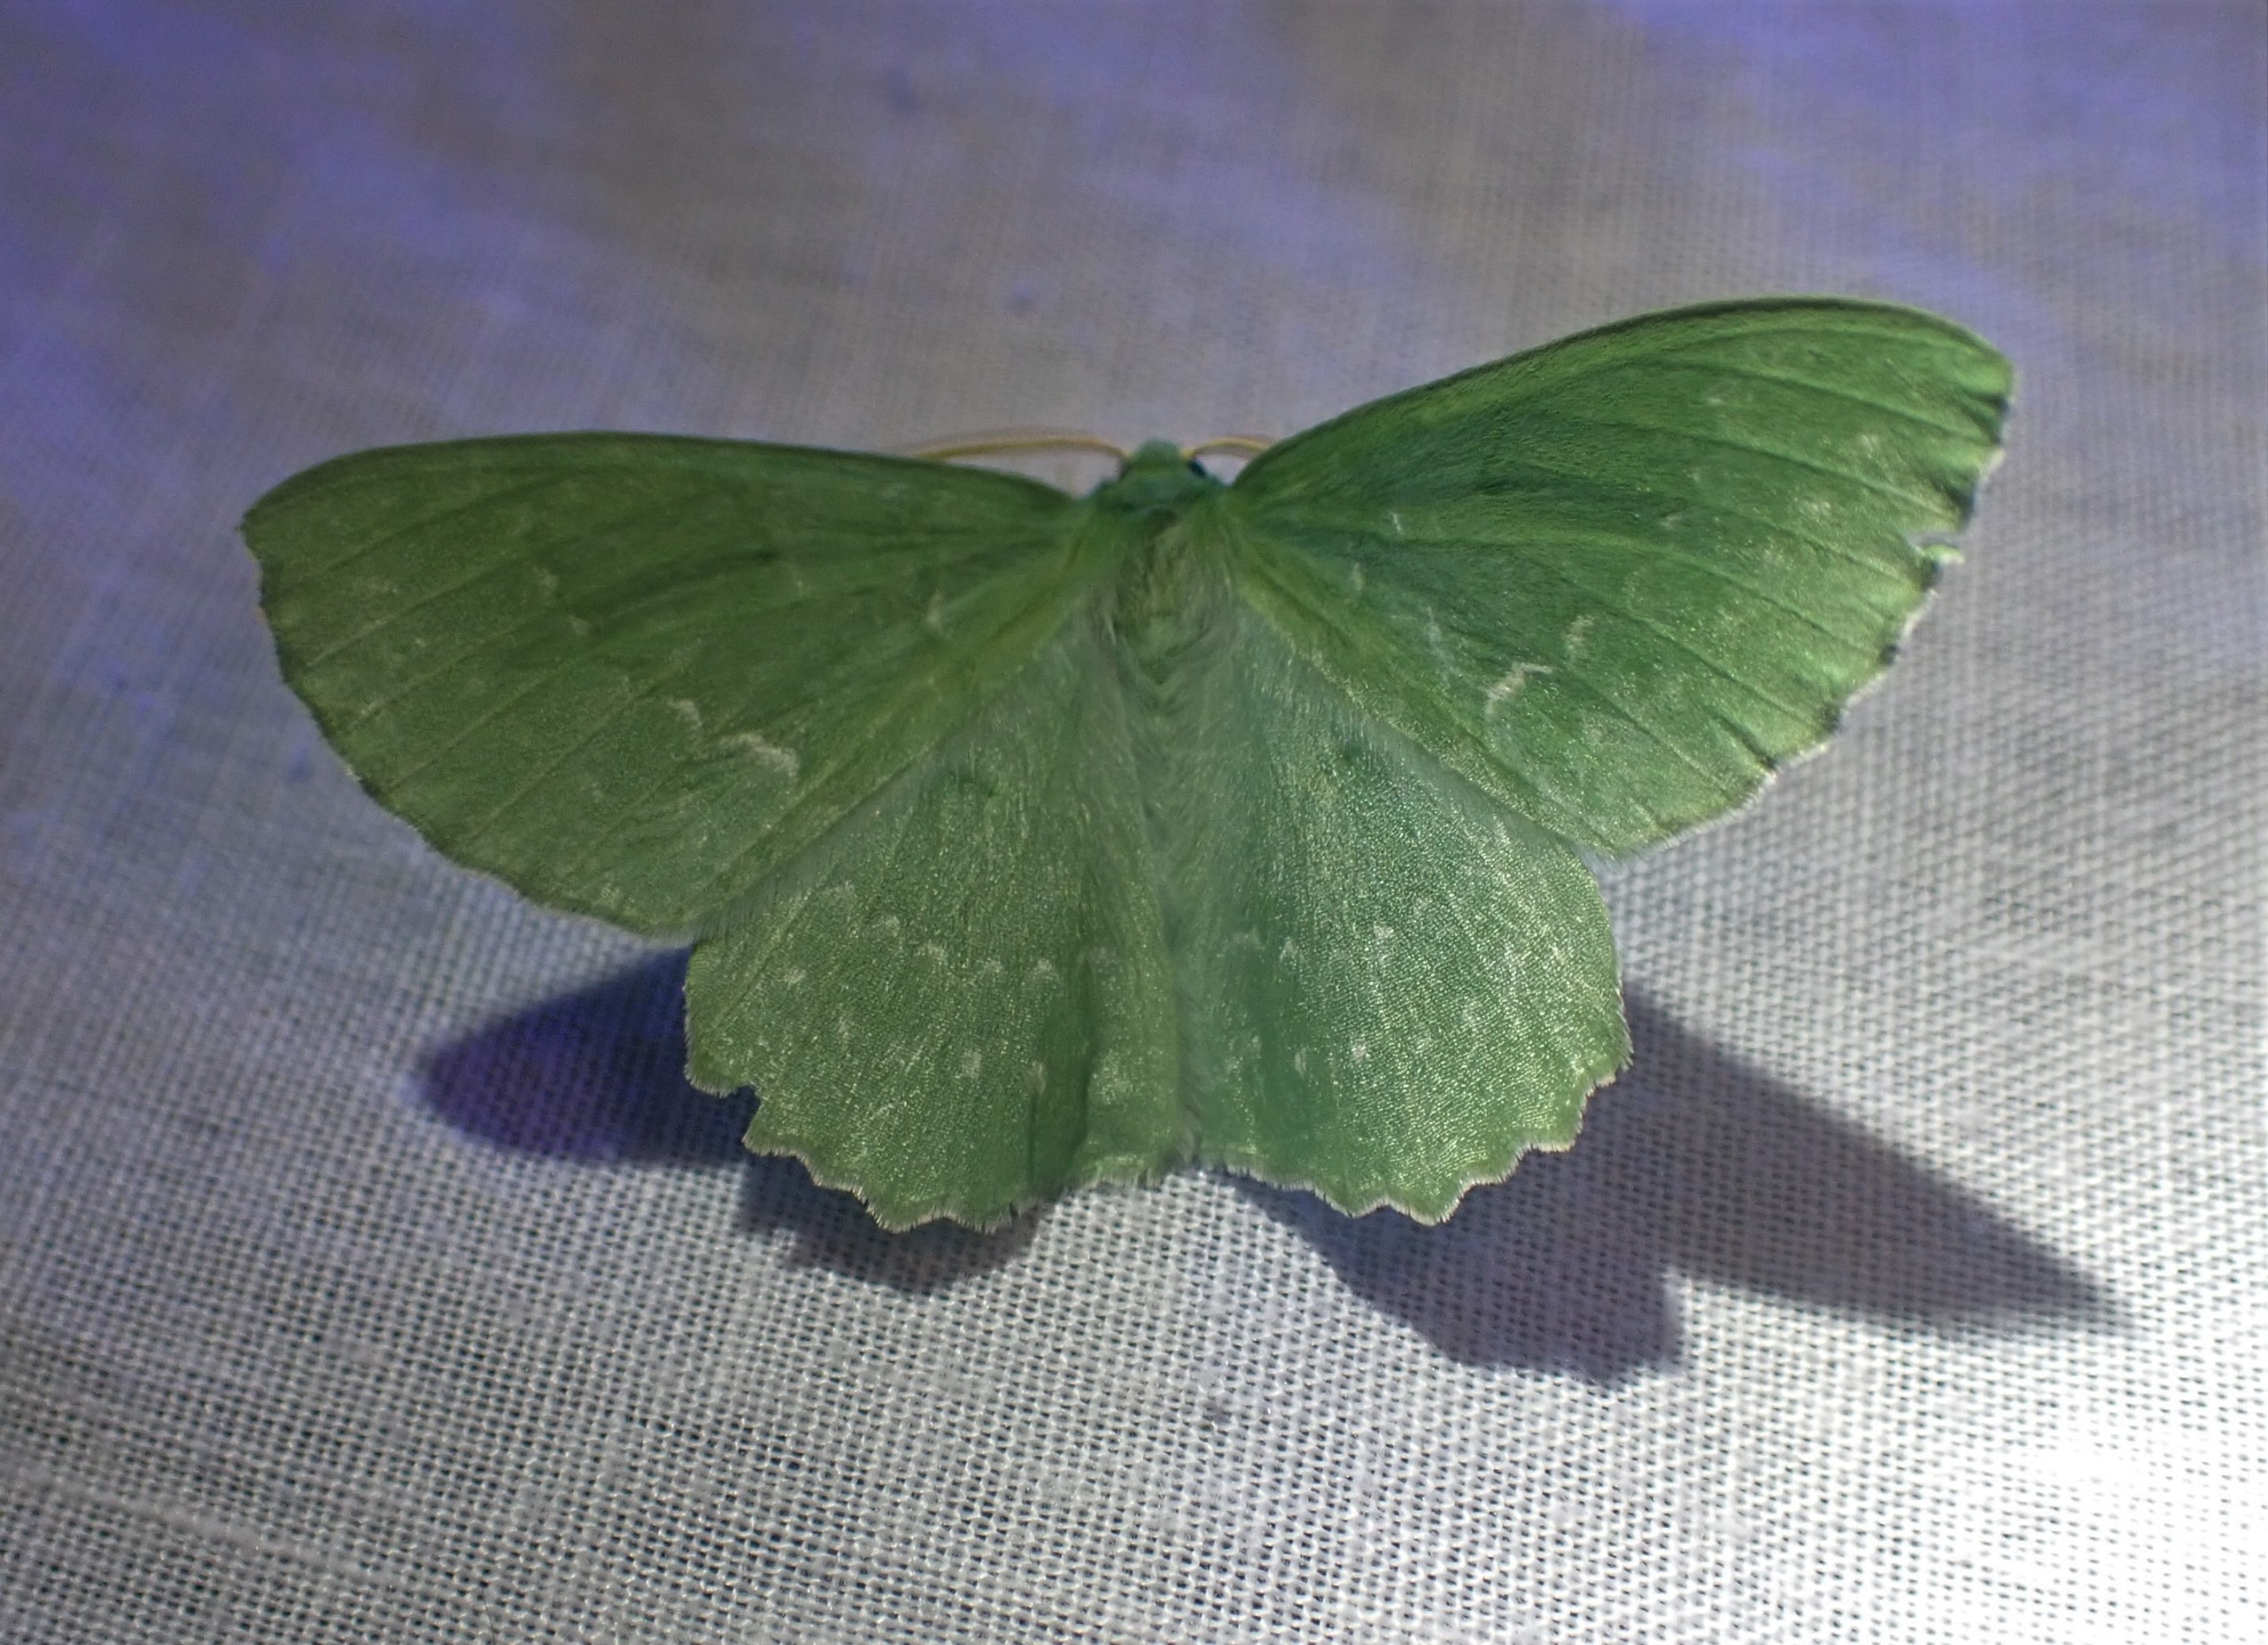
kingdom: Animalia
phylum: Arthropoda
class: Insecta
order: Lepidoptera
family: Geometridae
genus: Geometra
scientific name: Geometra papilionaria
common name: Grøn birkemåler
